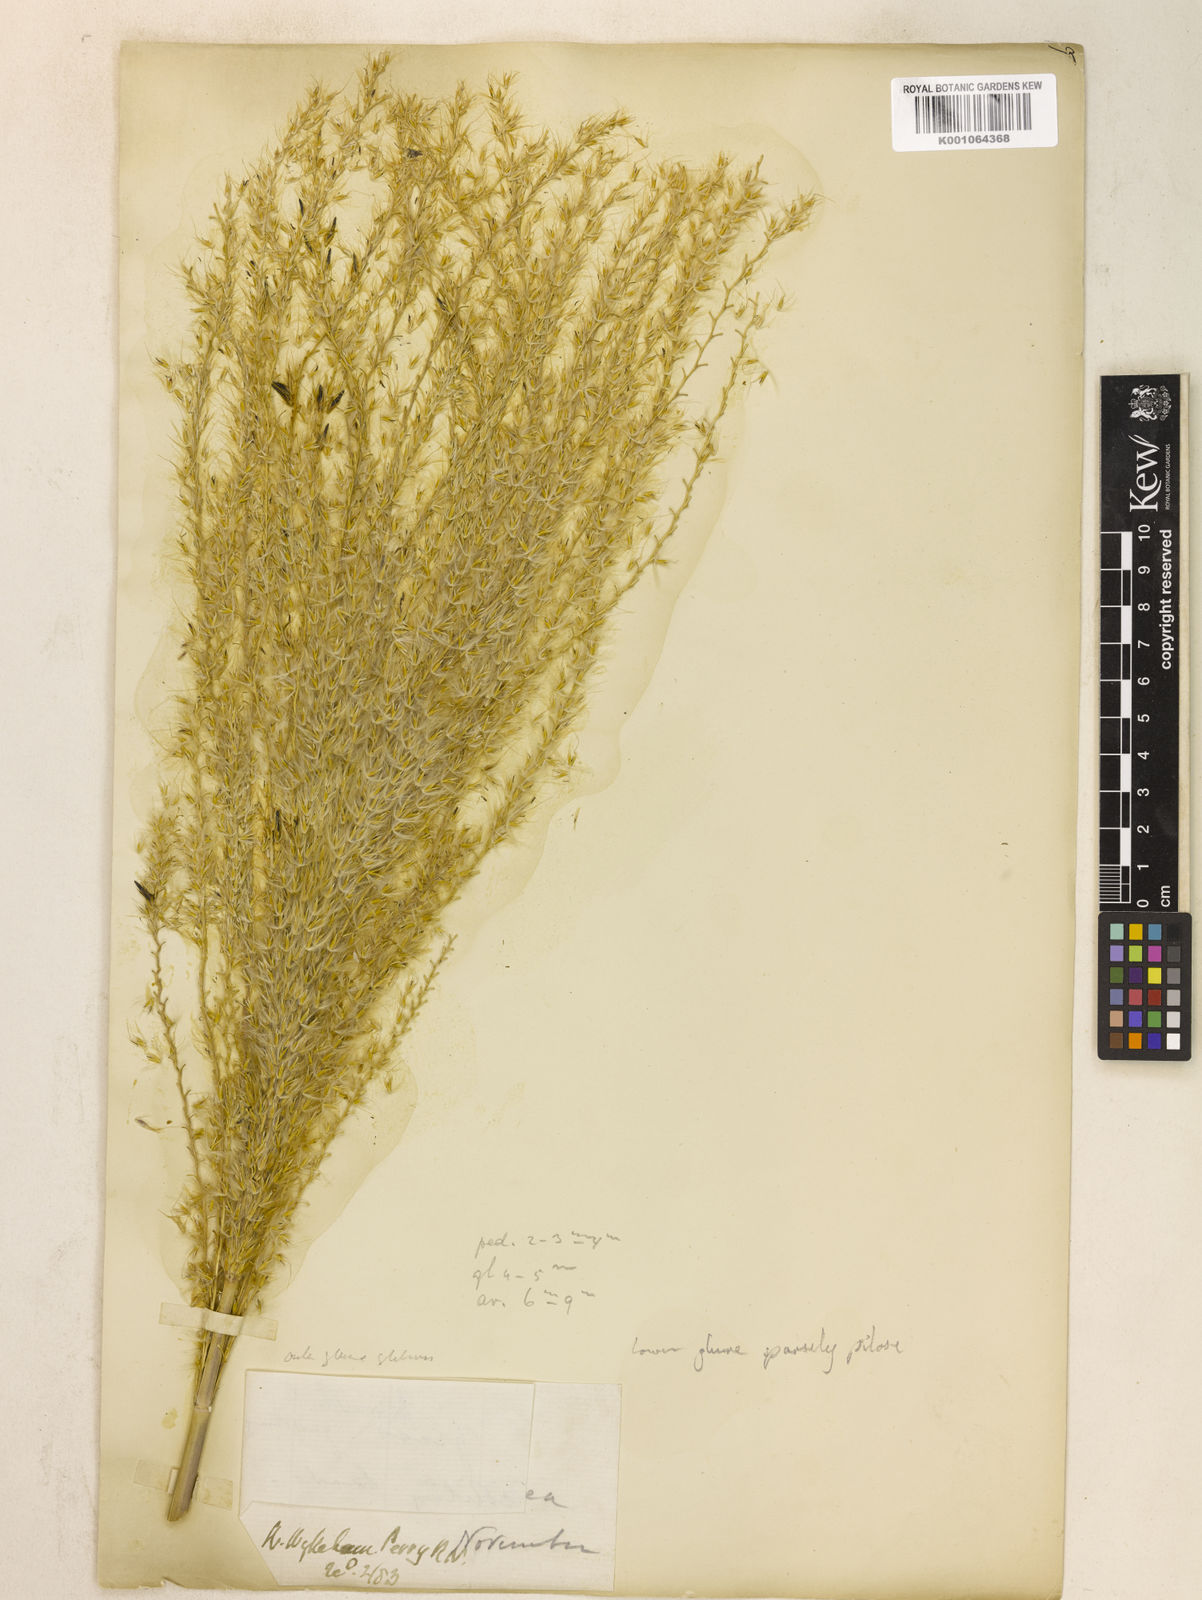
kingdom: Plantae
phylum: Tracheophyta
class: Liliopsida
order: Poales
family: Poaceae
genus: Miscanthus
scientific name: Miscanthus sinensis
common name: Chinese silvergrass
